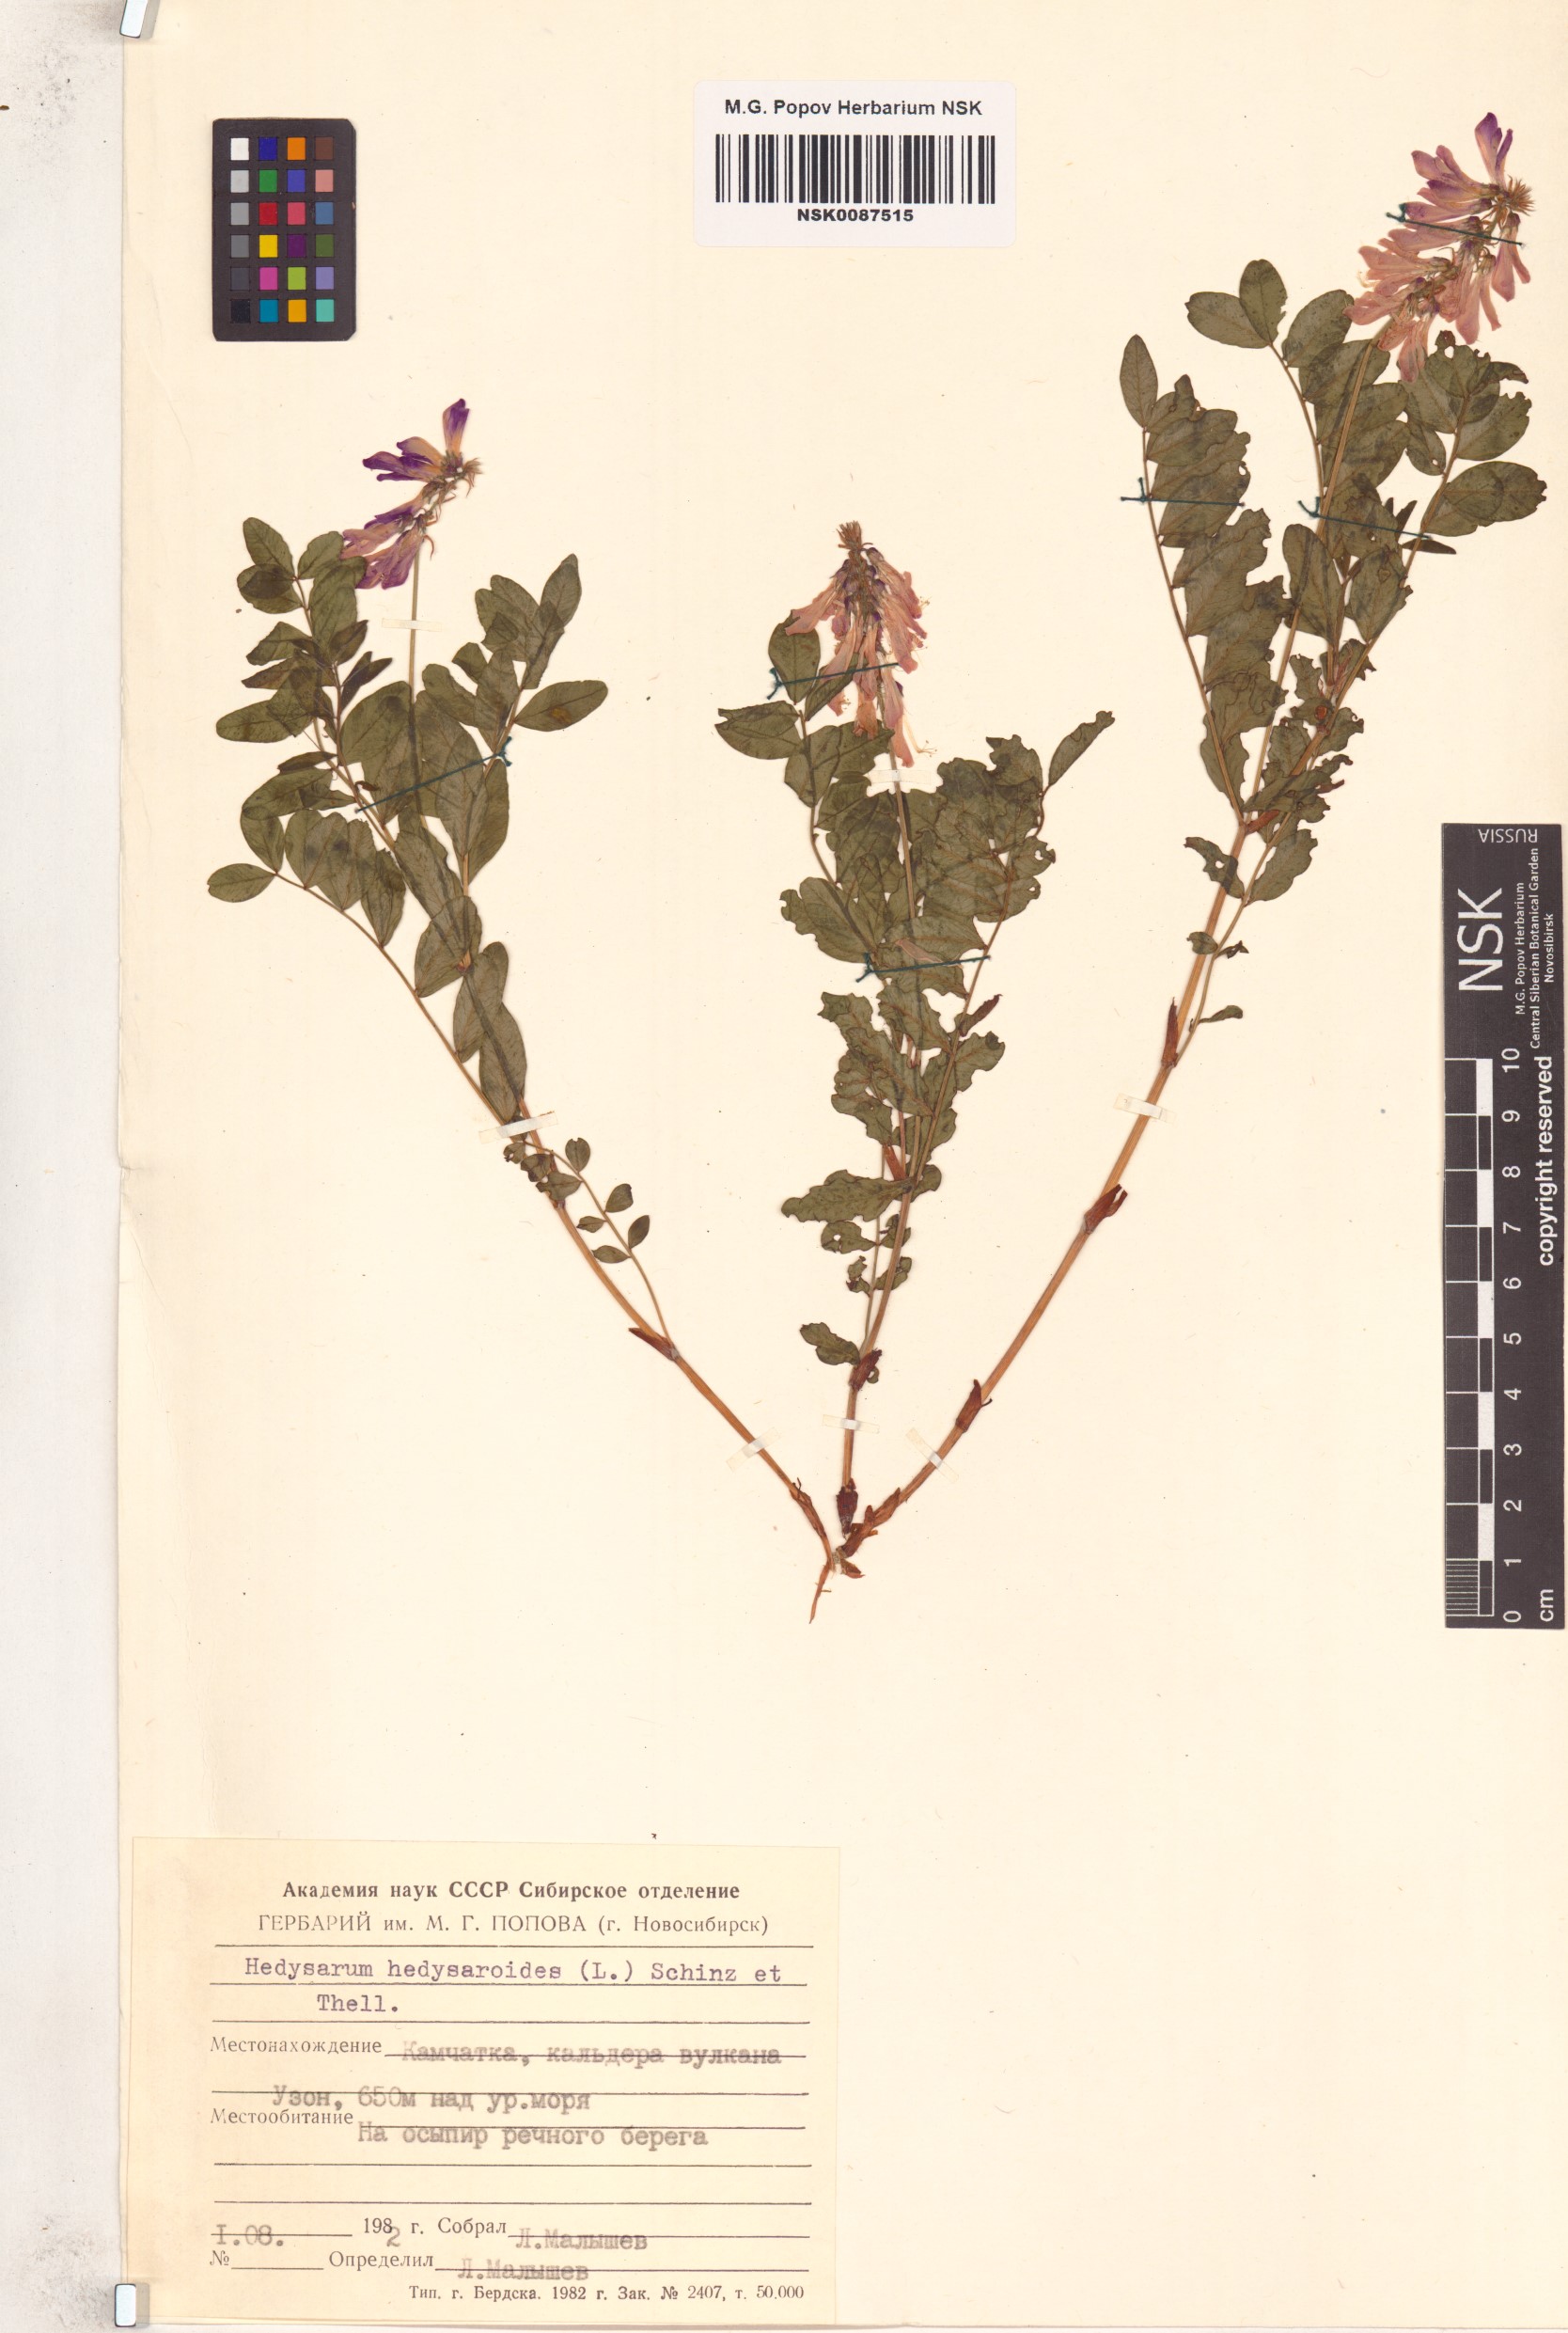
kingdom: Plantae
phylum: Tracheophyta
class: Magnoliopsida
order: Fabales
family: Fabaceae
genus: Hedysarum
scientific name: Hedysarum hedysaroides
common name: Alpine french-honeysuckle
